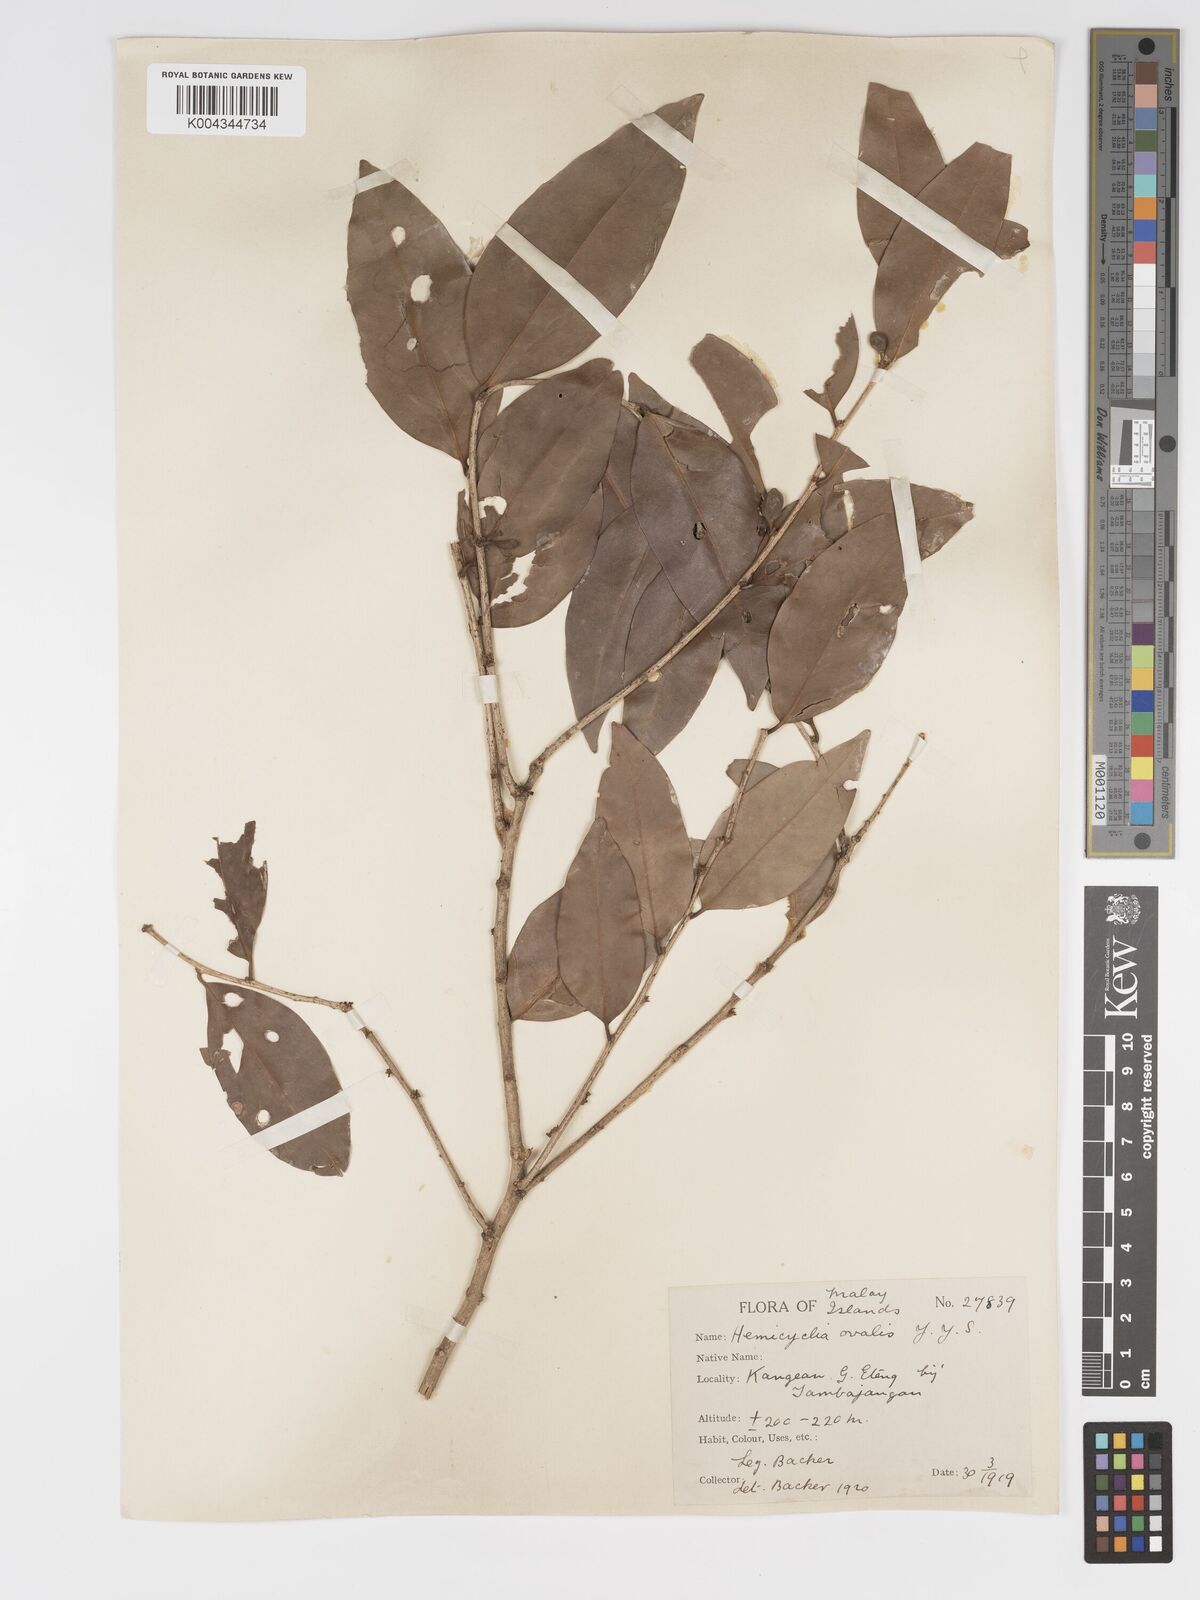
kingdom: Plantae
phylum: Tracheophyta
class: Magnoliopsida
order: Malpighiales
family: Putranjivaceae
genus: Drypetes
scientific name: Drypetes ovalis
